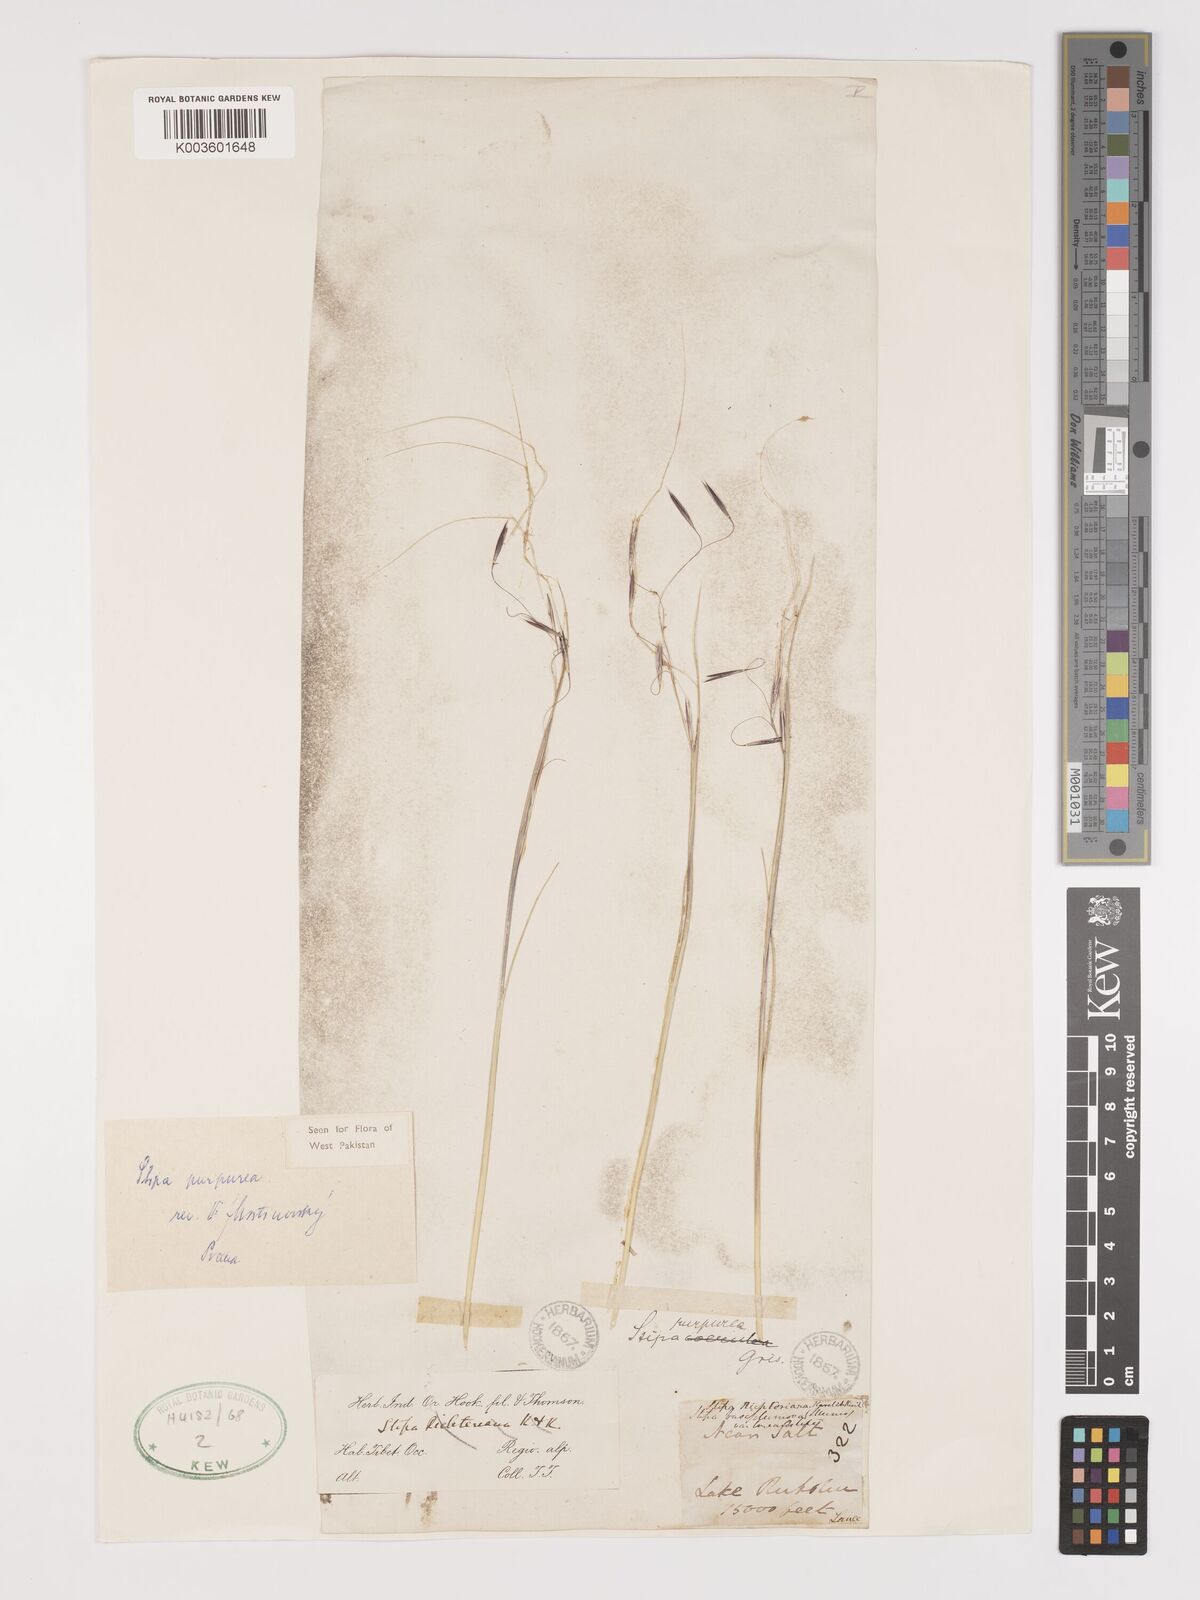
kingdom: Plantae
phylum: Tracheophyta
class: Liliopsida
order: Poales
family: Poaceae
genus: Stipa
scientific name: Stipa purpurea
